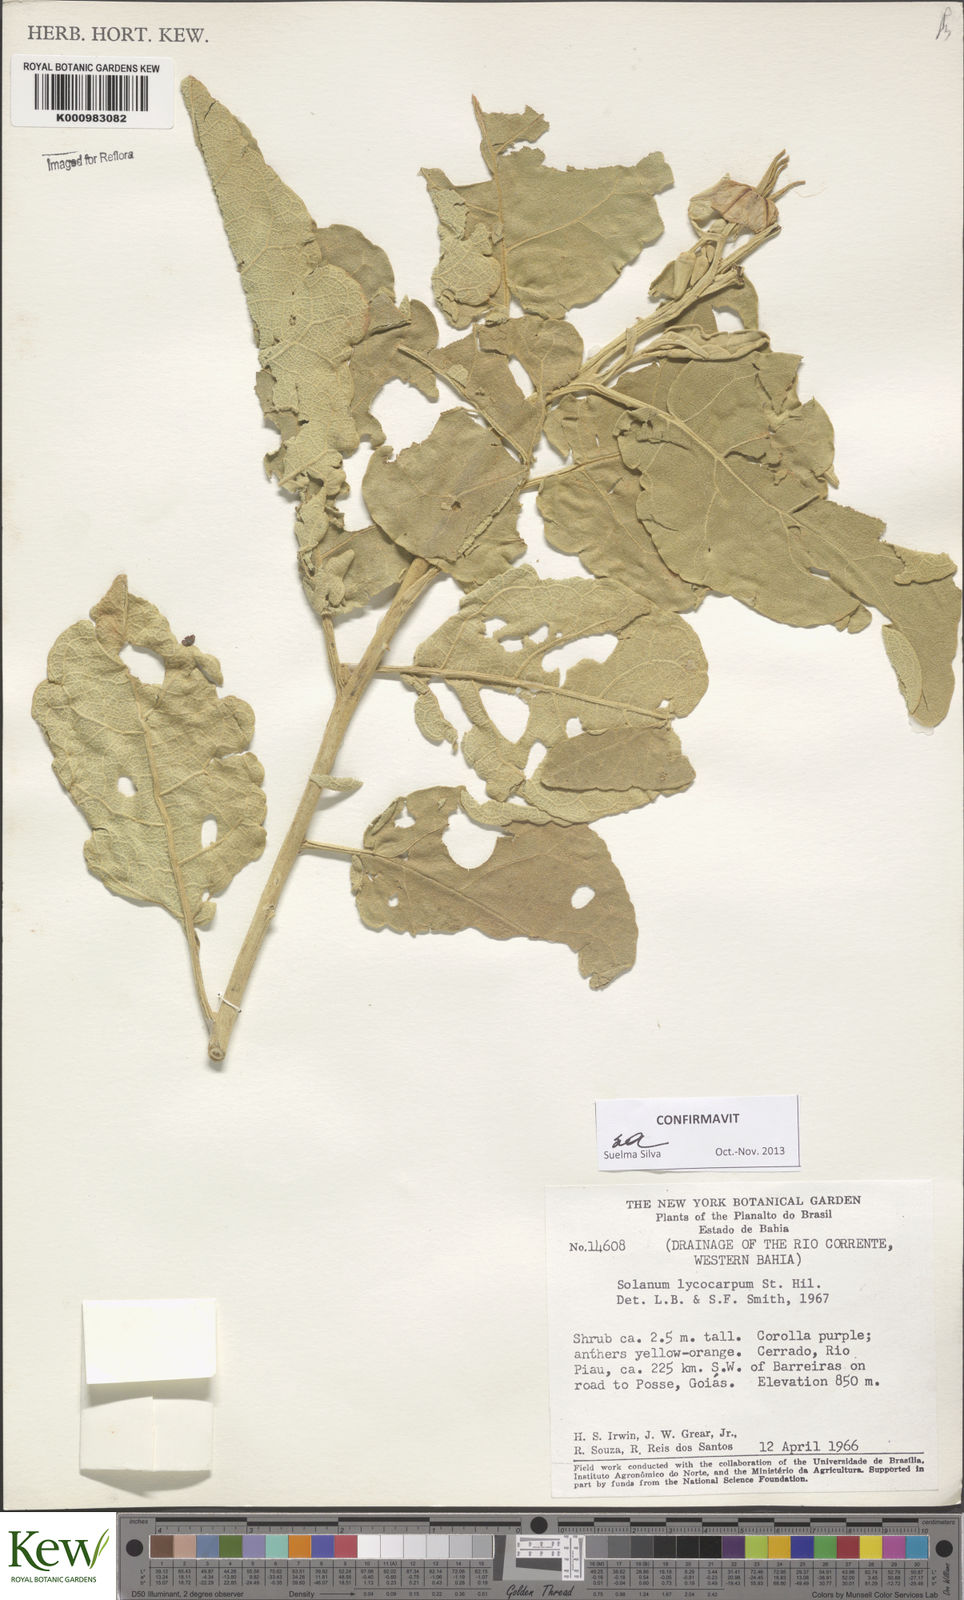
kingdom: Plantae
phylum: Tracheophyta
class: Magnoliopsida
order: Solanales
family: Solanaceae
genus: Solanum
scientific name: Solanum lycocarpum
